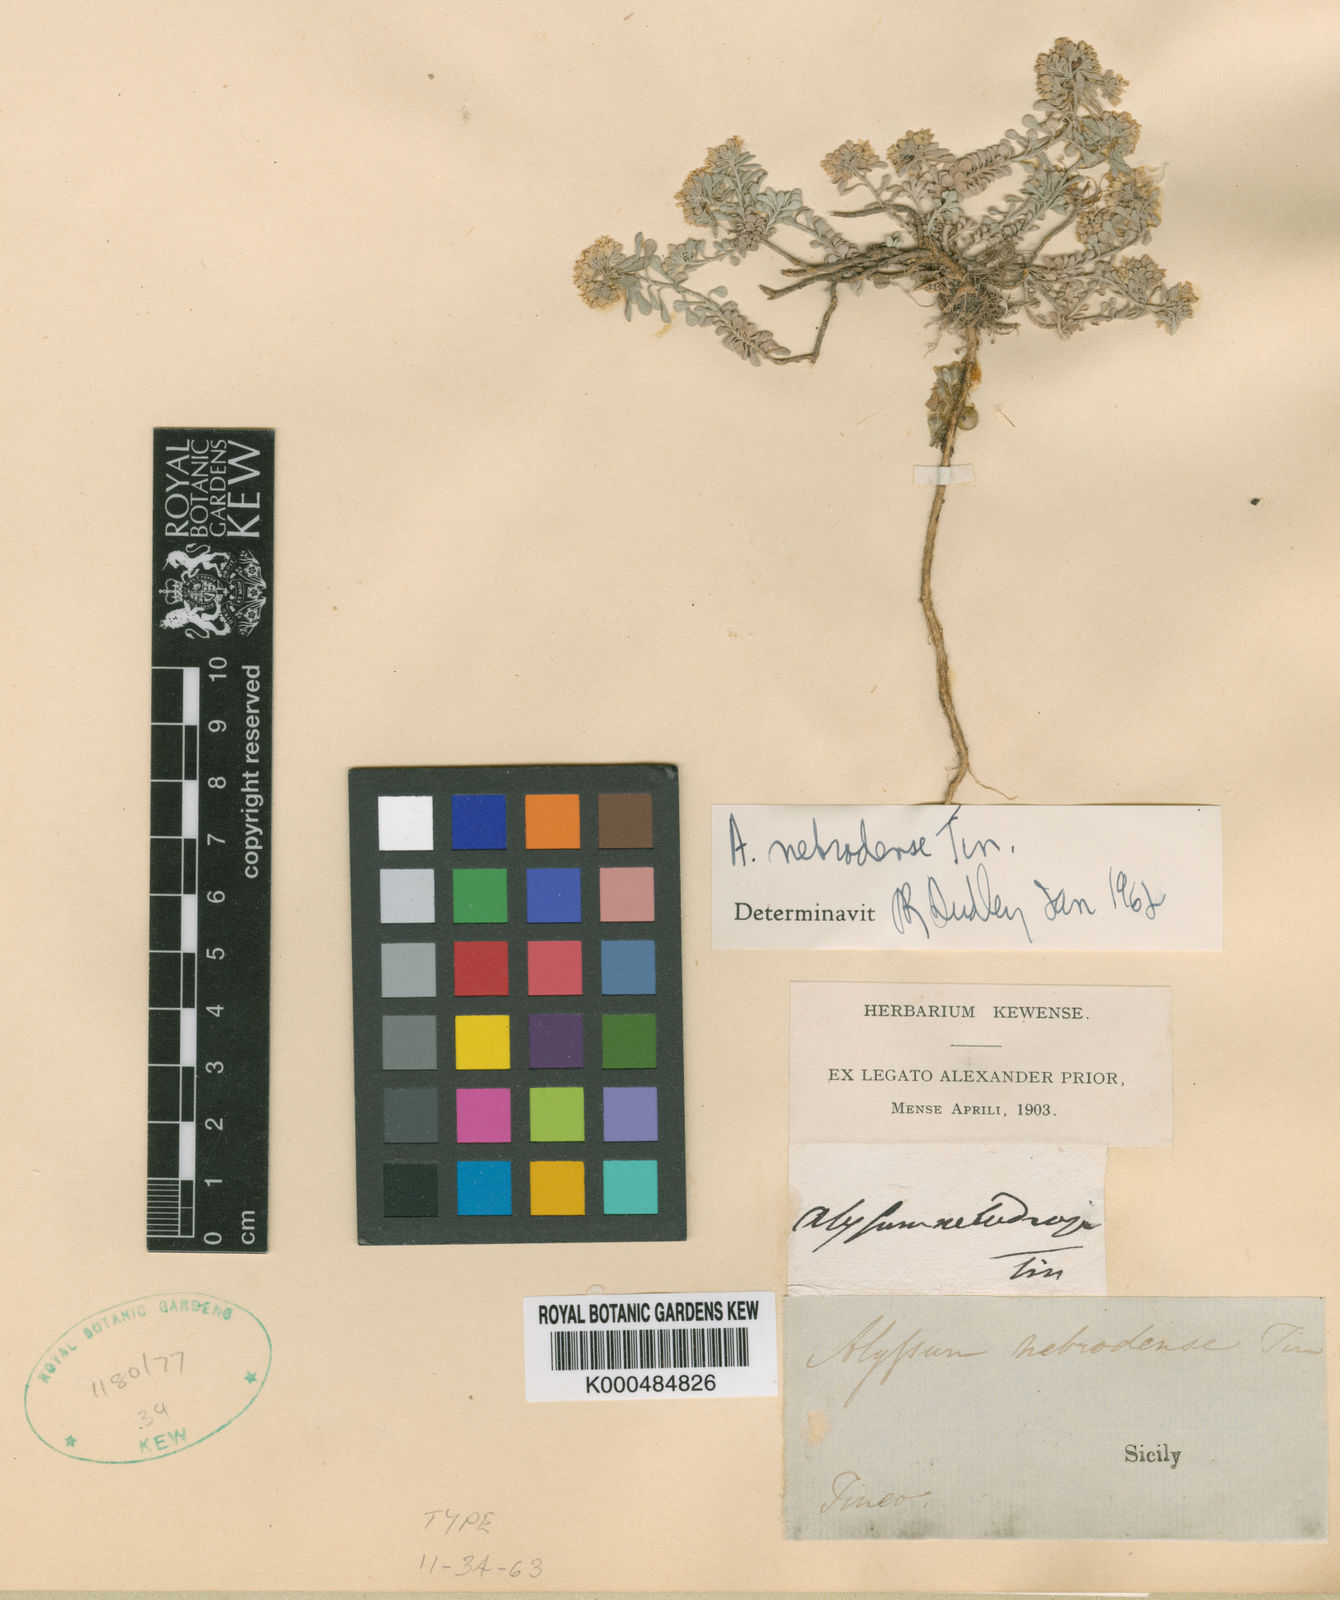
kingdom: Plantae
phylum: Tracheophyta
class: Magnoliopsida
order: Brassicales
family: Brassicaceae
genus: Odontarrhena
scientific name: Odontarrhena nebrodensis
